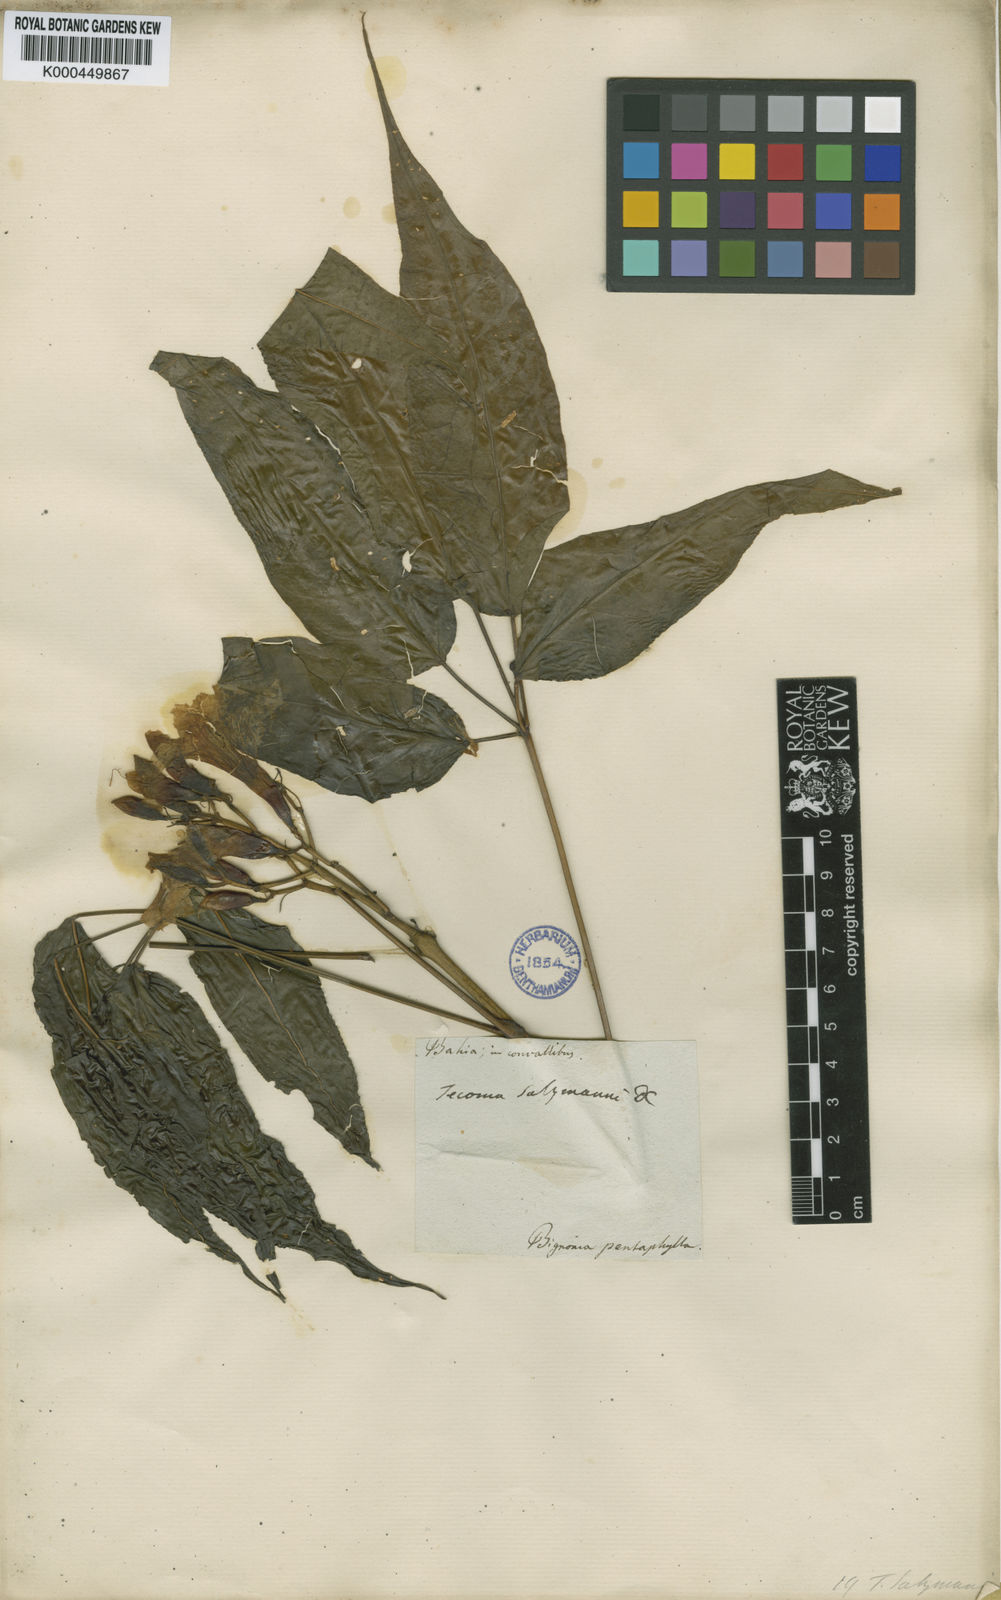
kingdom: Plantae
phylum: Tracheophyta
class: Magnoliopsida
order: Lamiales
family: Bignoniaceae
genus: Sparattosperma
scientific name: Sparattosperma leucanthum
